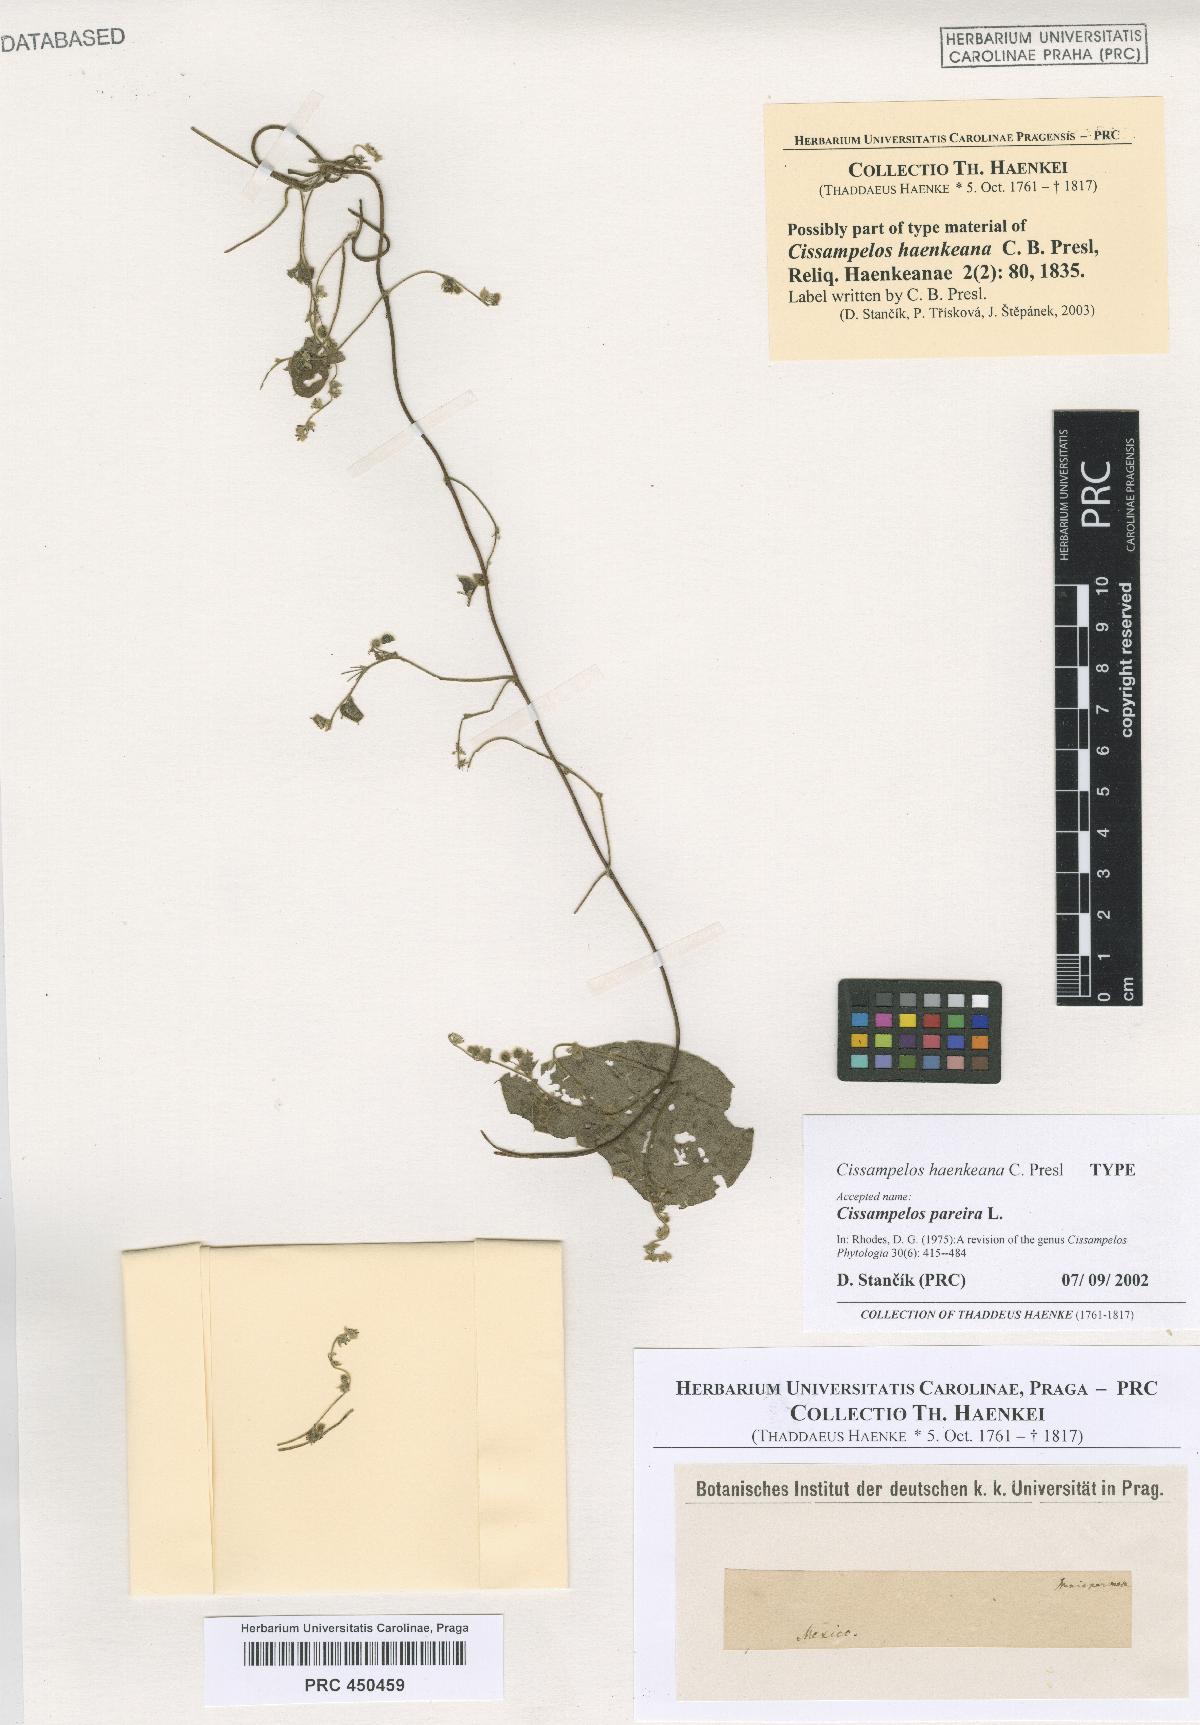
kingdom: Plantae
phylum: Tracheophyta
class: Magnoliopsida
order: Ranunculales
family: Menispermaceae
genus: Cissampelos
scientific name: Cissampelos pareira
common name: Velvetleaf
